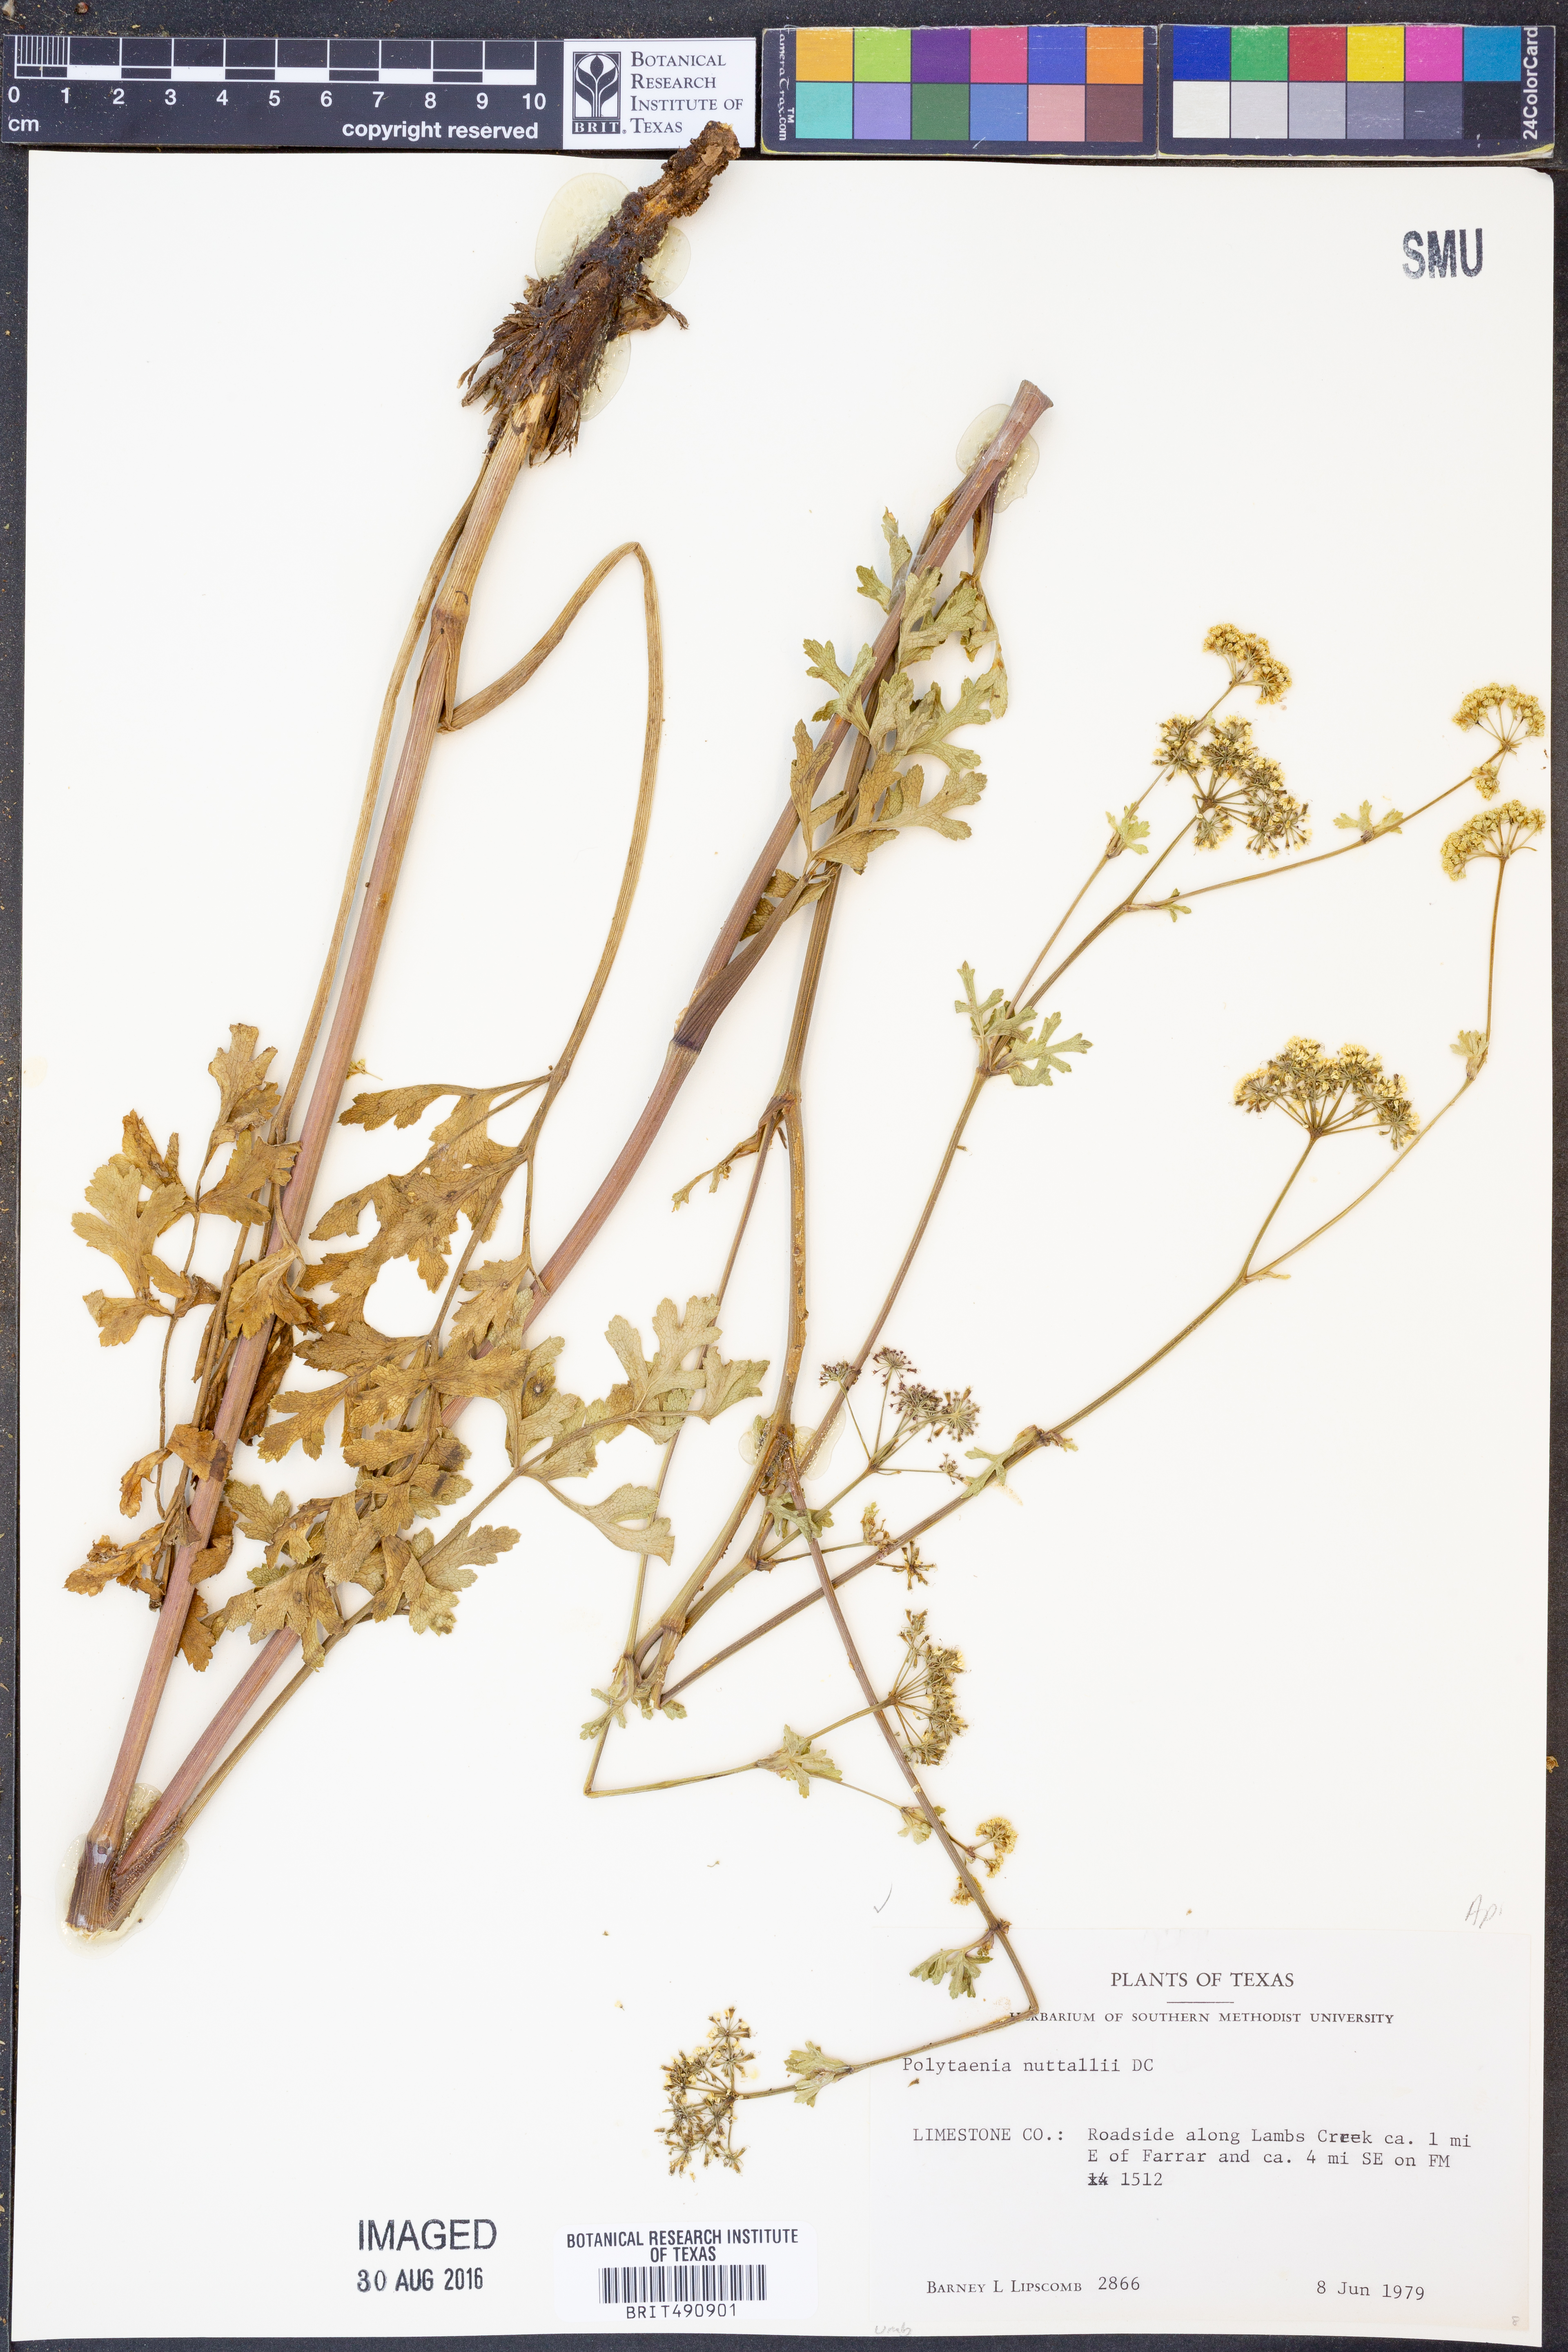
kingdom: Plantae
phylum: Tracheophyta
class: Magnoliopsida
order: Apiales
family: Apiaceae
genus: Polytaenia
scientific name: Polytaenia nuttallii
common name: Prairie-parsley
